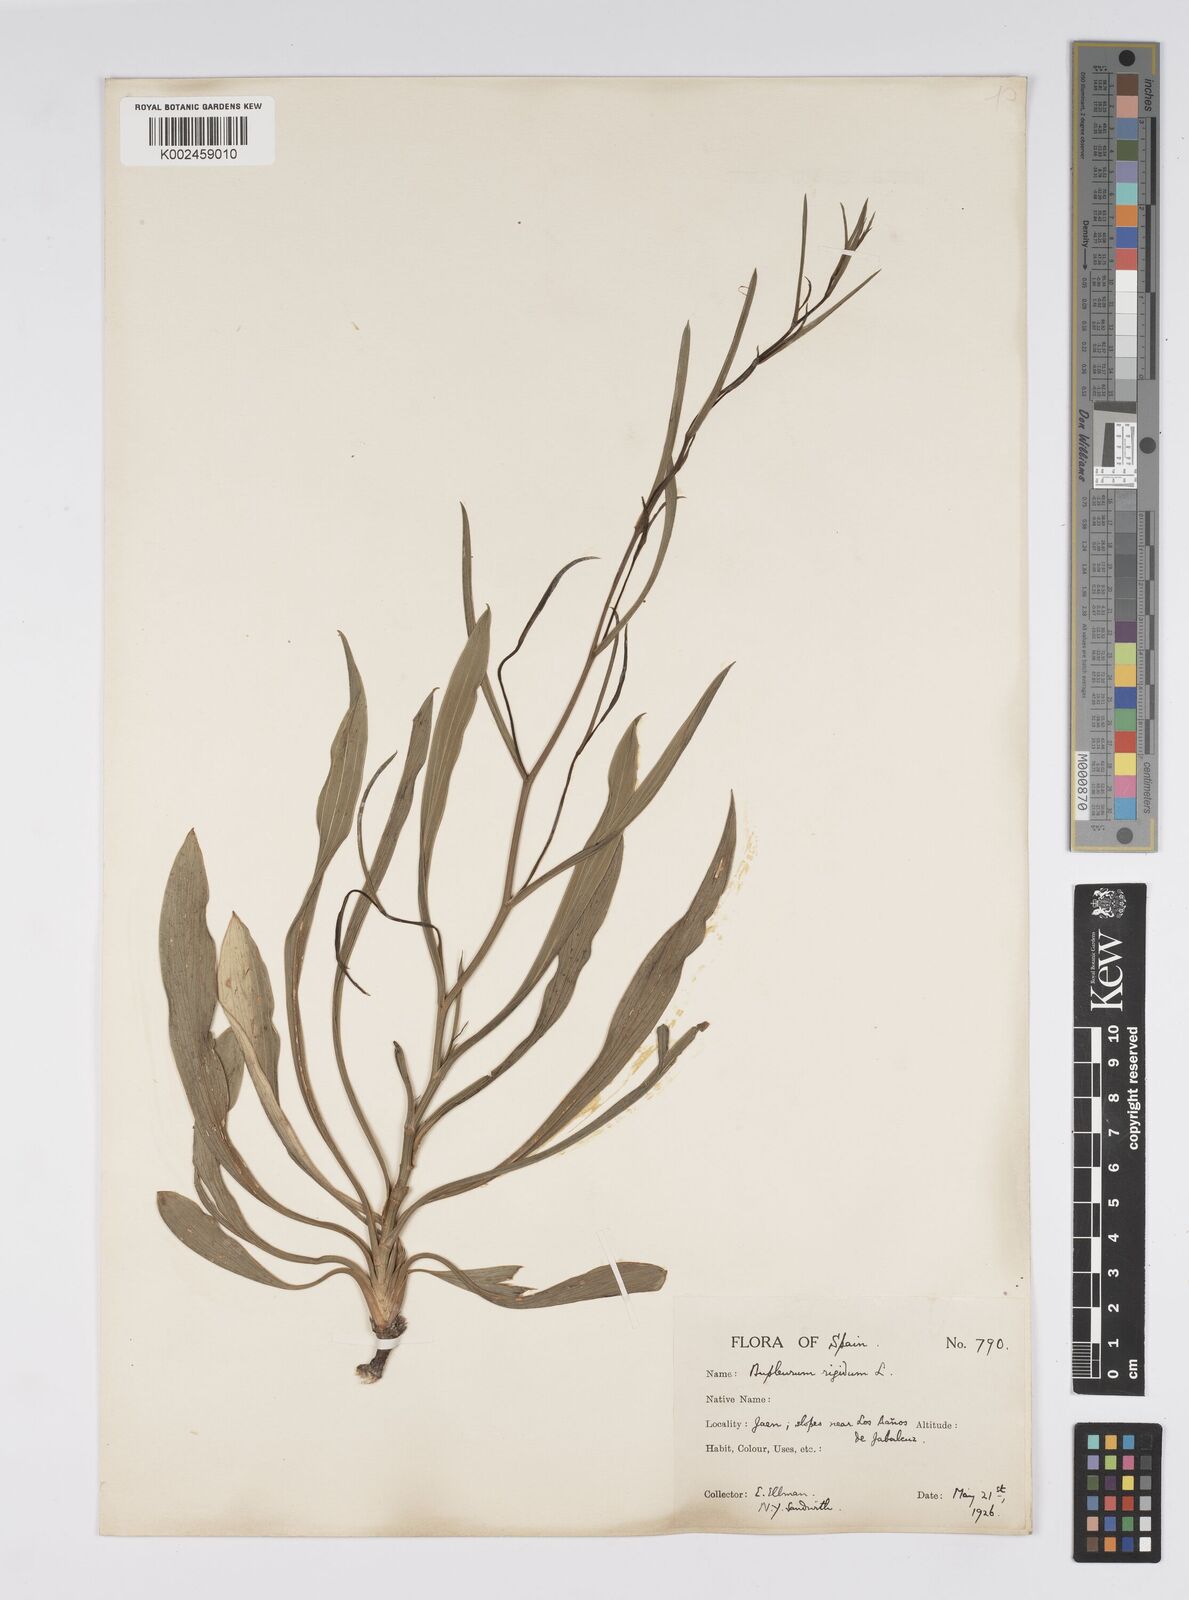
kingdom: Plantae
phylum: Tracheophyta
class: Magnoliopsida
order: Apiales
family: Apiaceae
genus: Bupleurum
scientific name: Bupleurum rigidum
